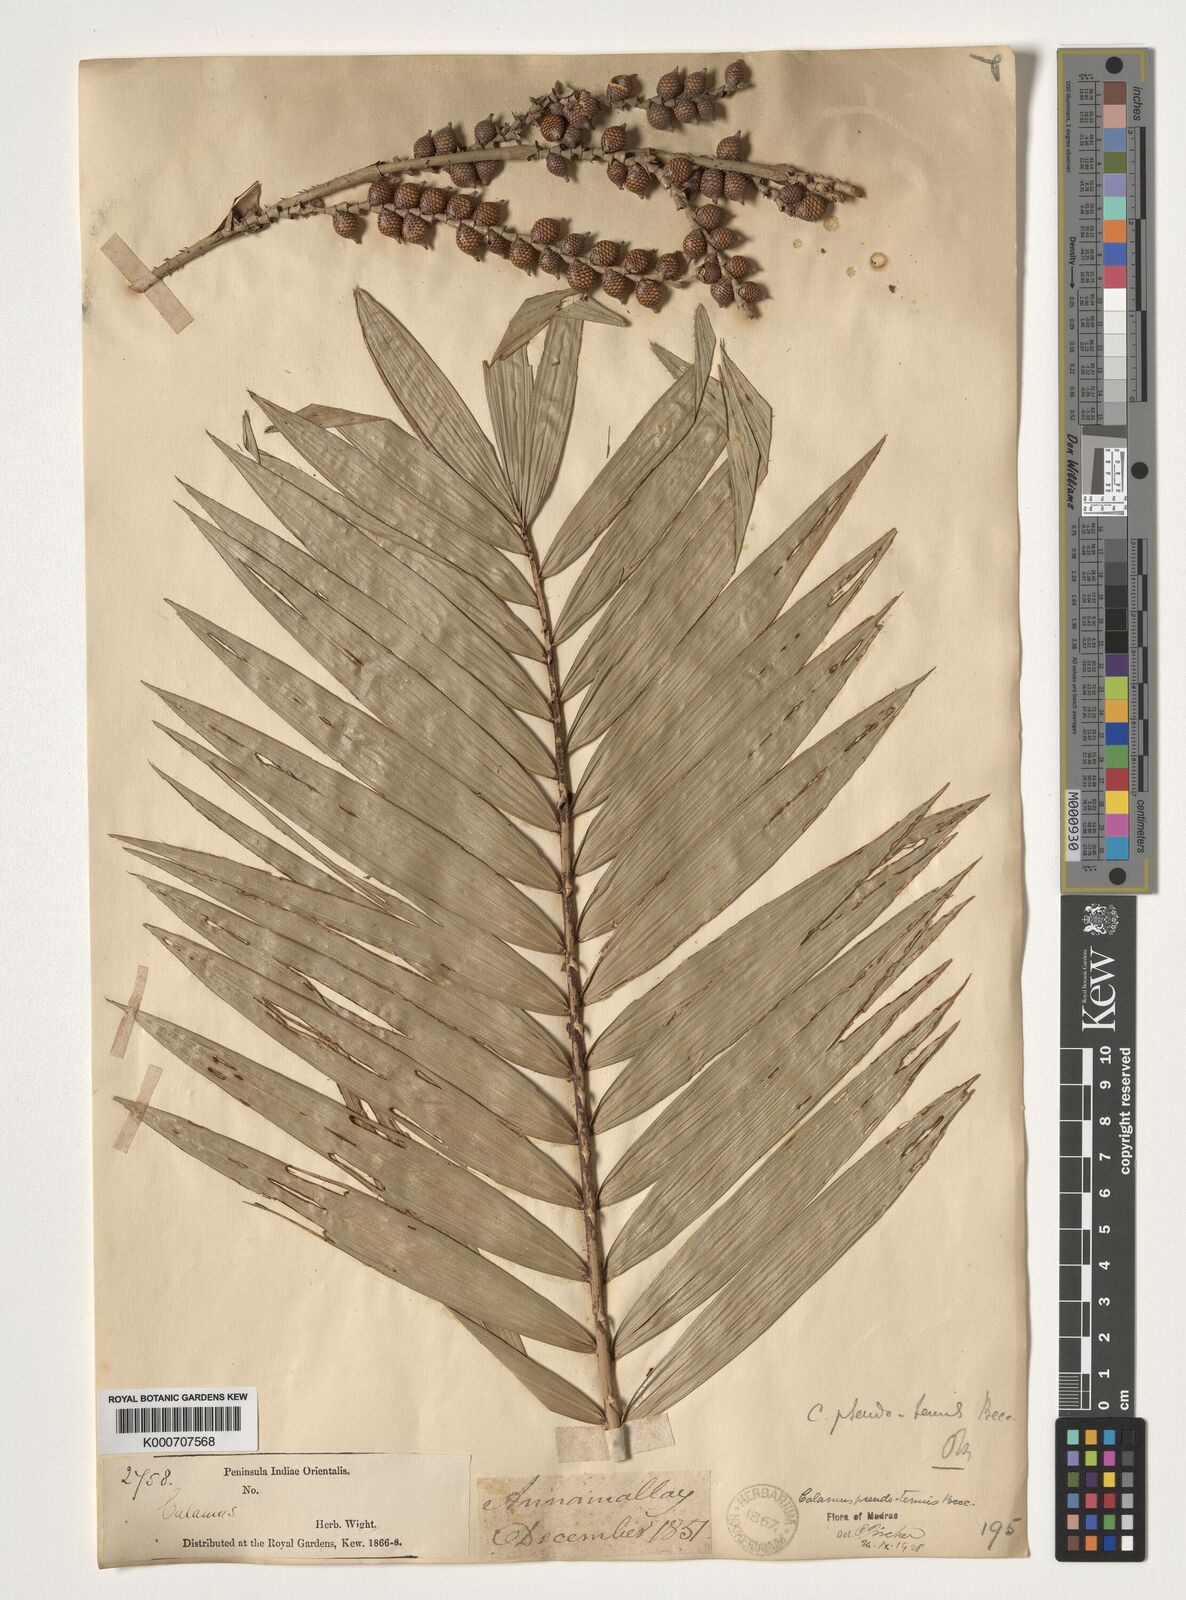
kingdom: Plantae
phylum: Tracheophyta
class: Liliopsida
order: Arecales
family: Arecaceae
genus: Calamus
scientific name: Calamus pseudotenuis
